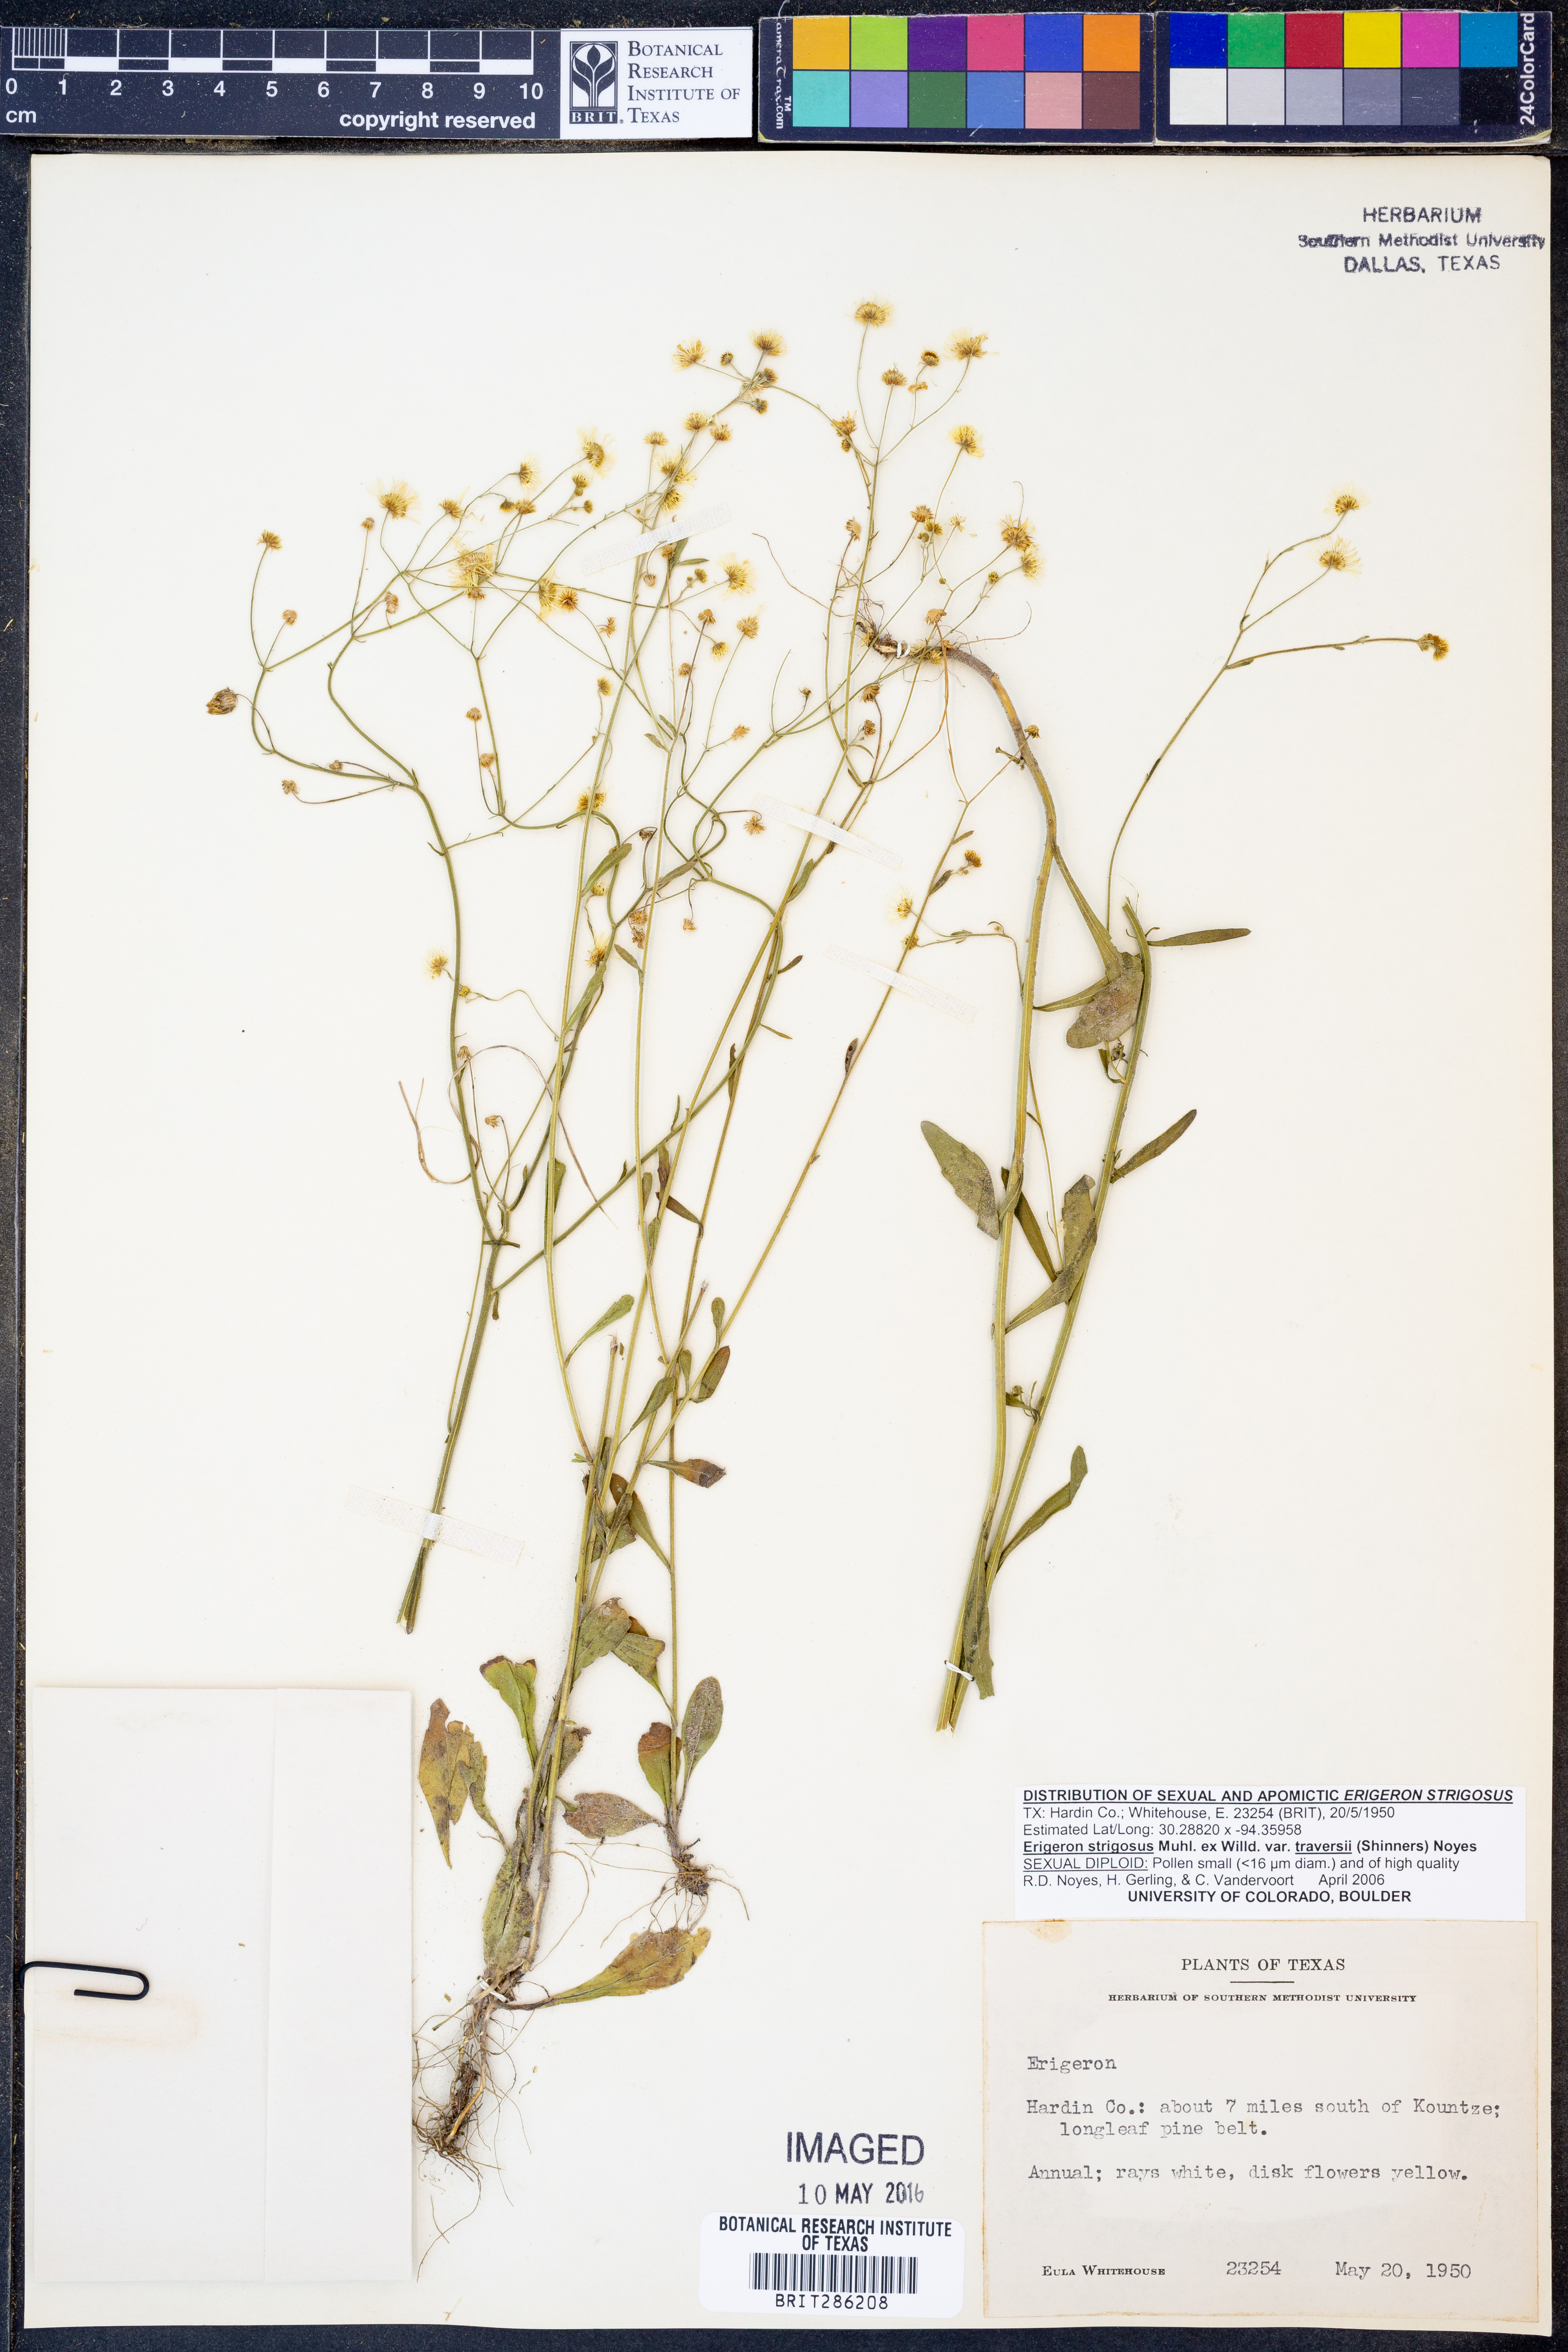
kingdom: Plantae
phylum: Tracheophyta
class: Magnoliopsida
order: Asterales
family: Asteraceae
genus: Erigeron
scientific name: Erigeron strigosus
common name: Common eastern fleabane
